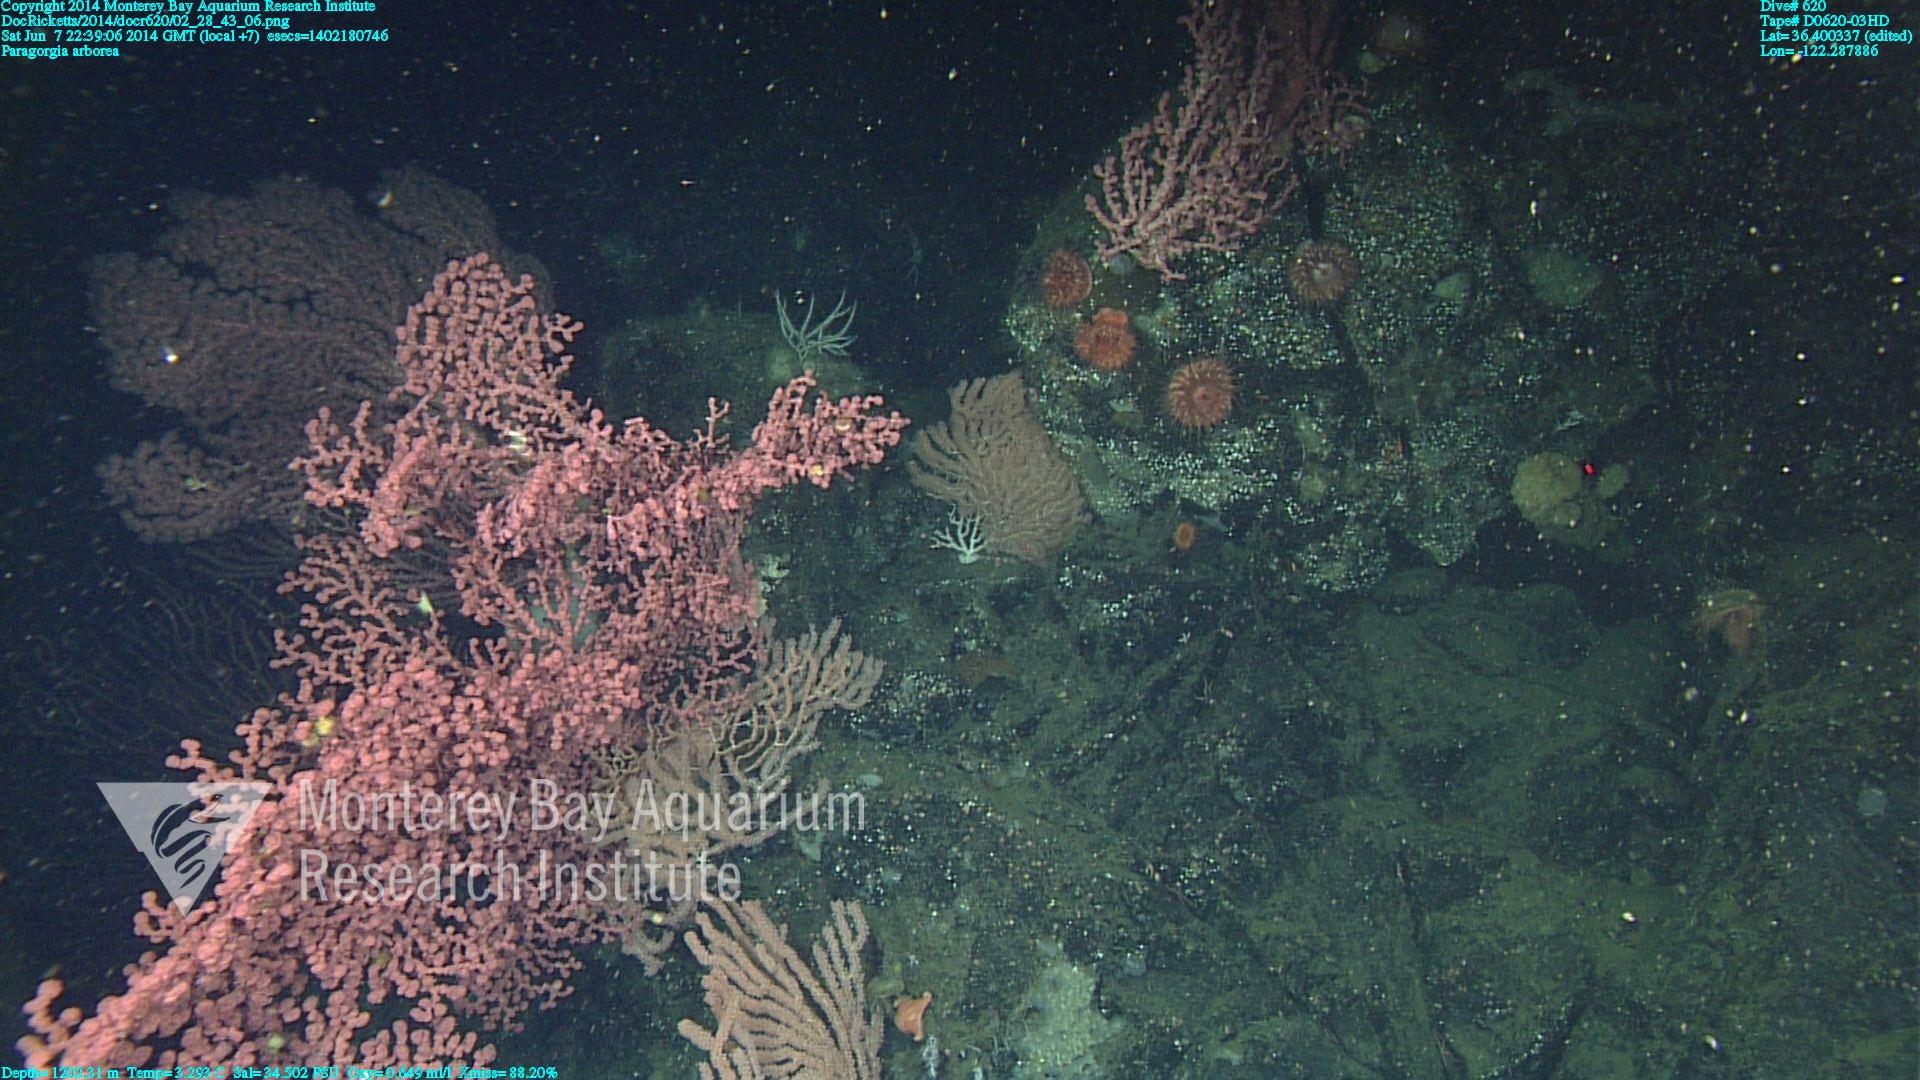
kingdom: Animalia
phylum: Cnidaria
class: Anthozoa
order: Scleralcyonacea
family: Coralliidae
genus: Paragorgia
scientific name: Paragorgia arborea
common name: Bubble gum coral
